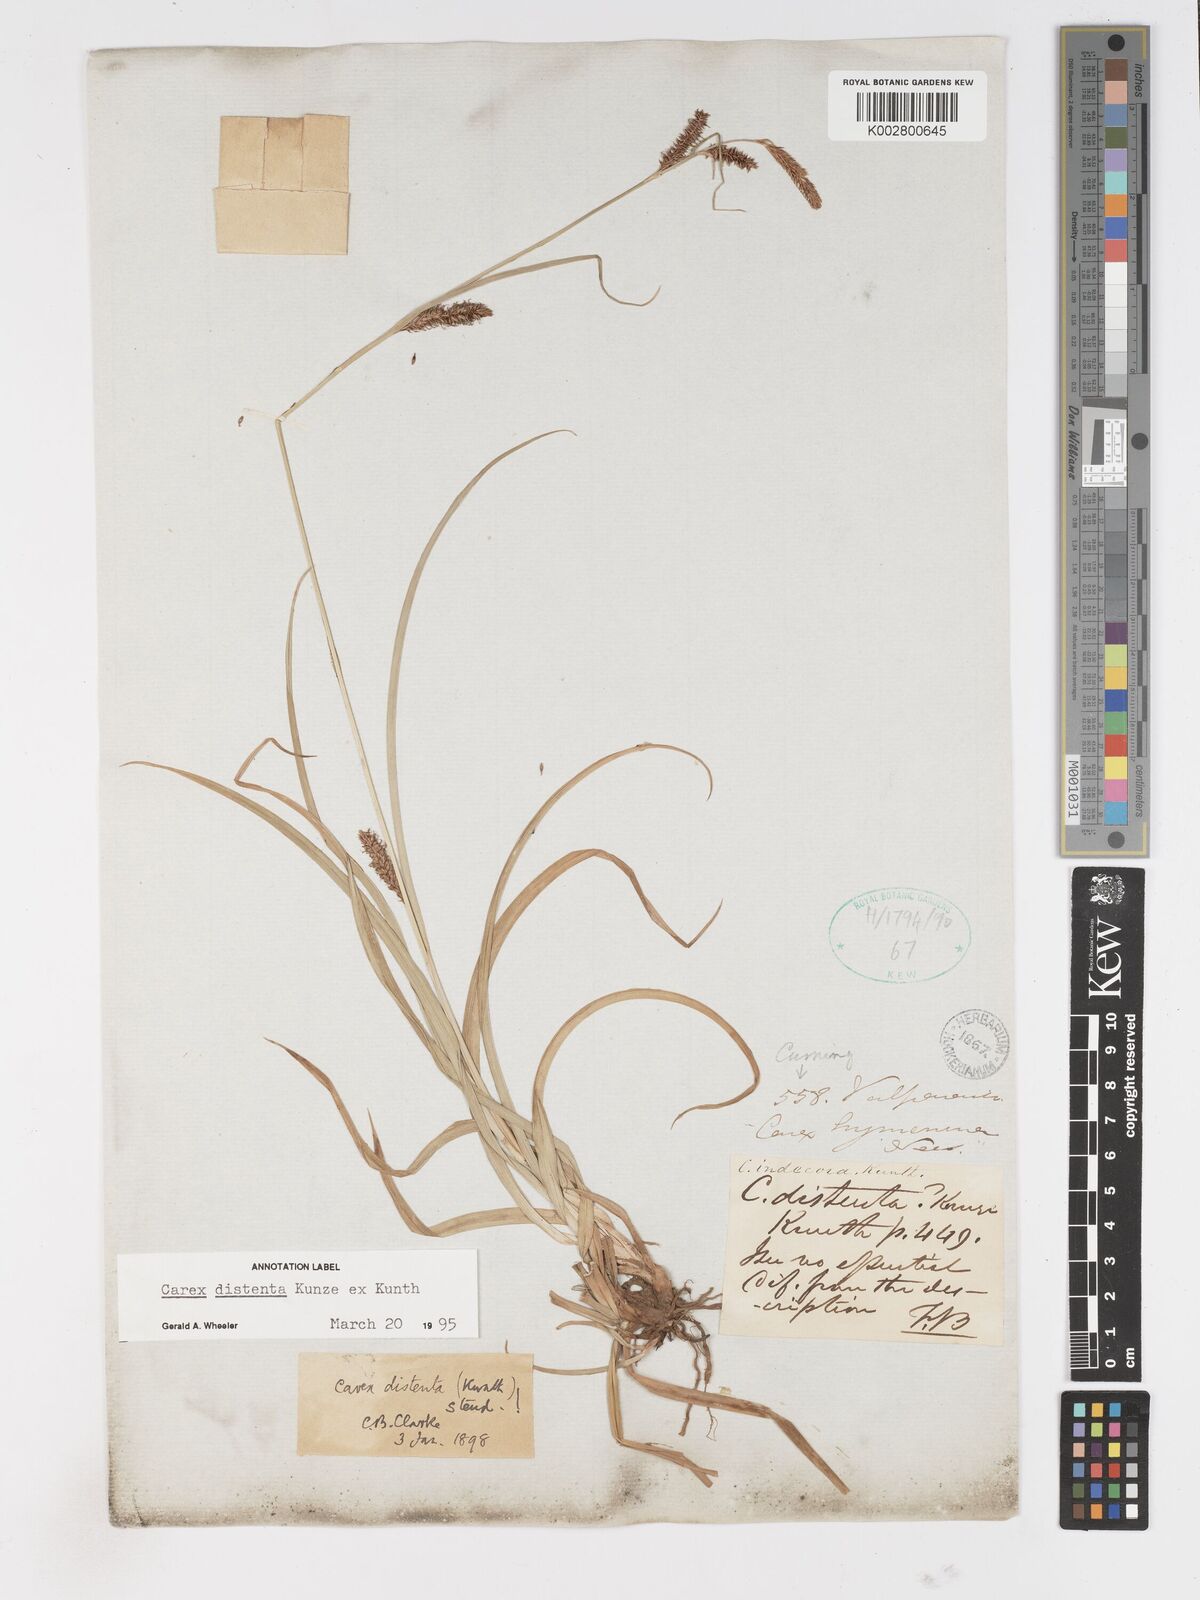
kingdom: Plantae
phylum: Tracheophyta
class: Liliopsida
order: Poales
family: Cyperaceae
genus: Carex
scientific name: Carex fuscula
